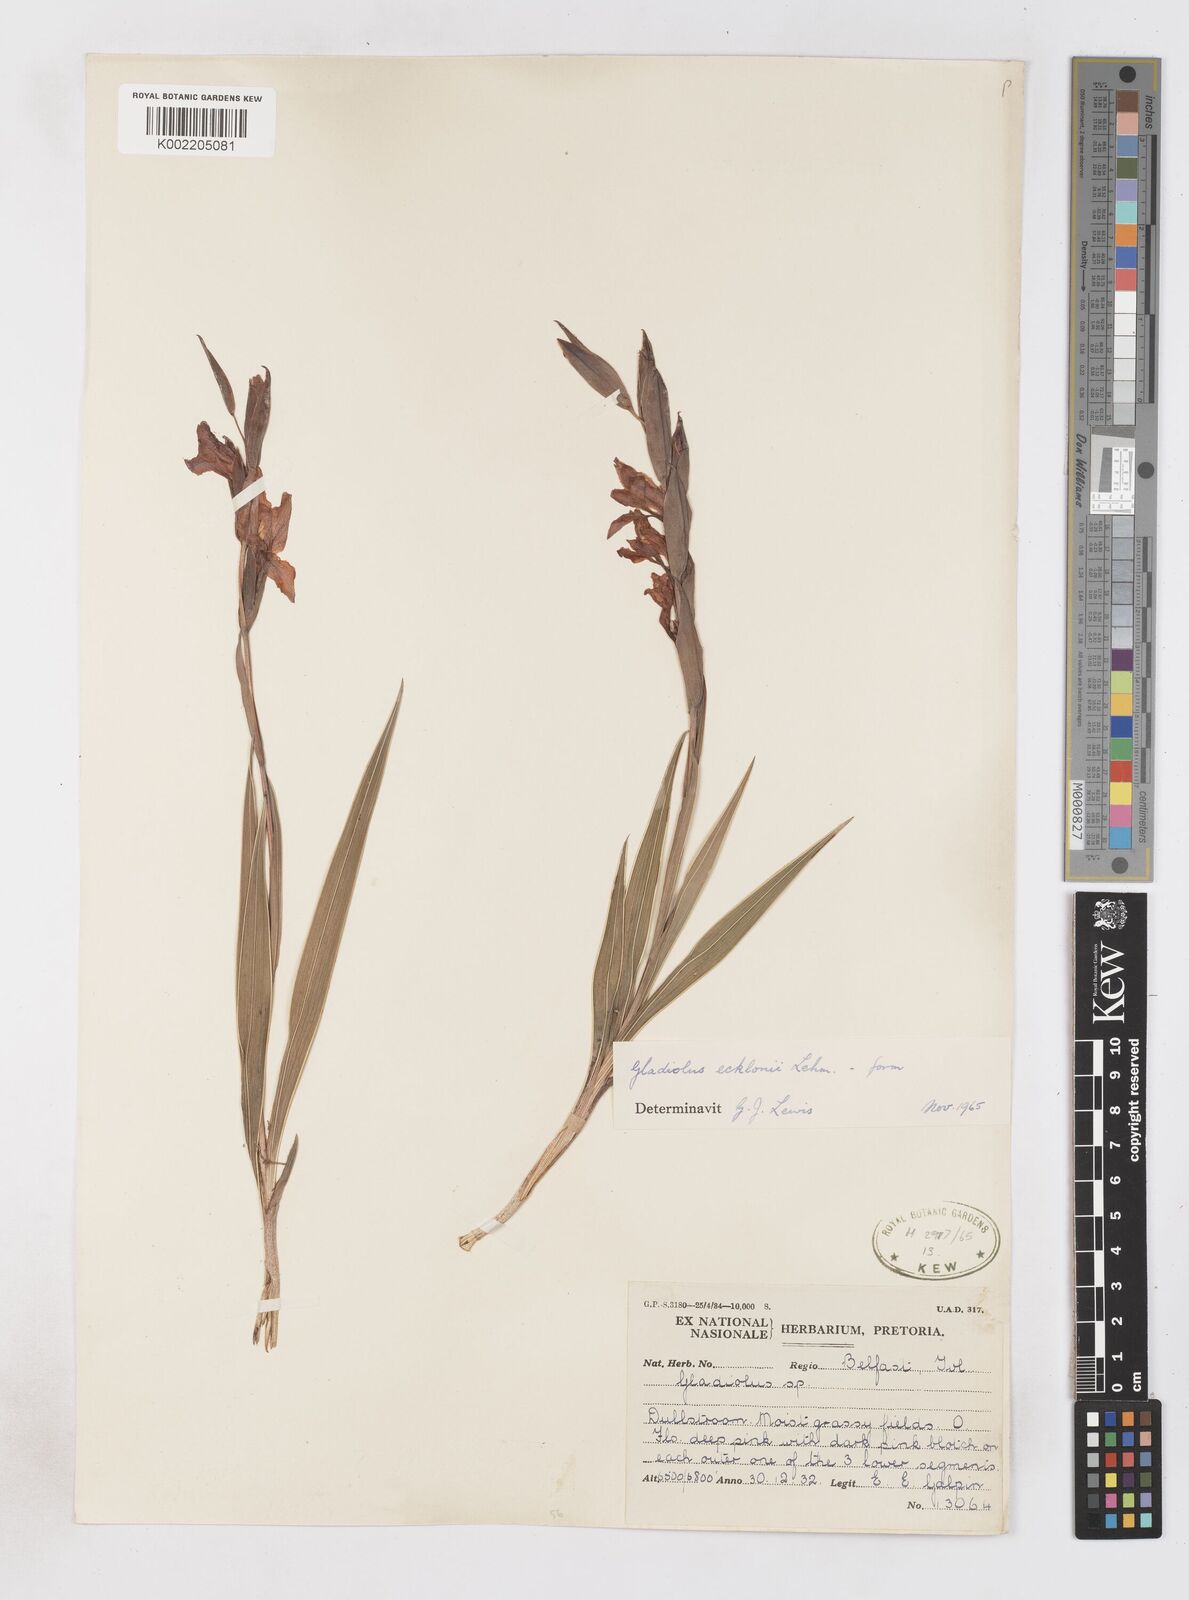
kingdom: Plantae
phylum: Tracheophyta
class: Liliopsida
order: Asparagales
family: Iridaceae
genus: Gladiolus
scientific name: Gladiolus ecklonii
